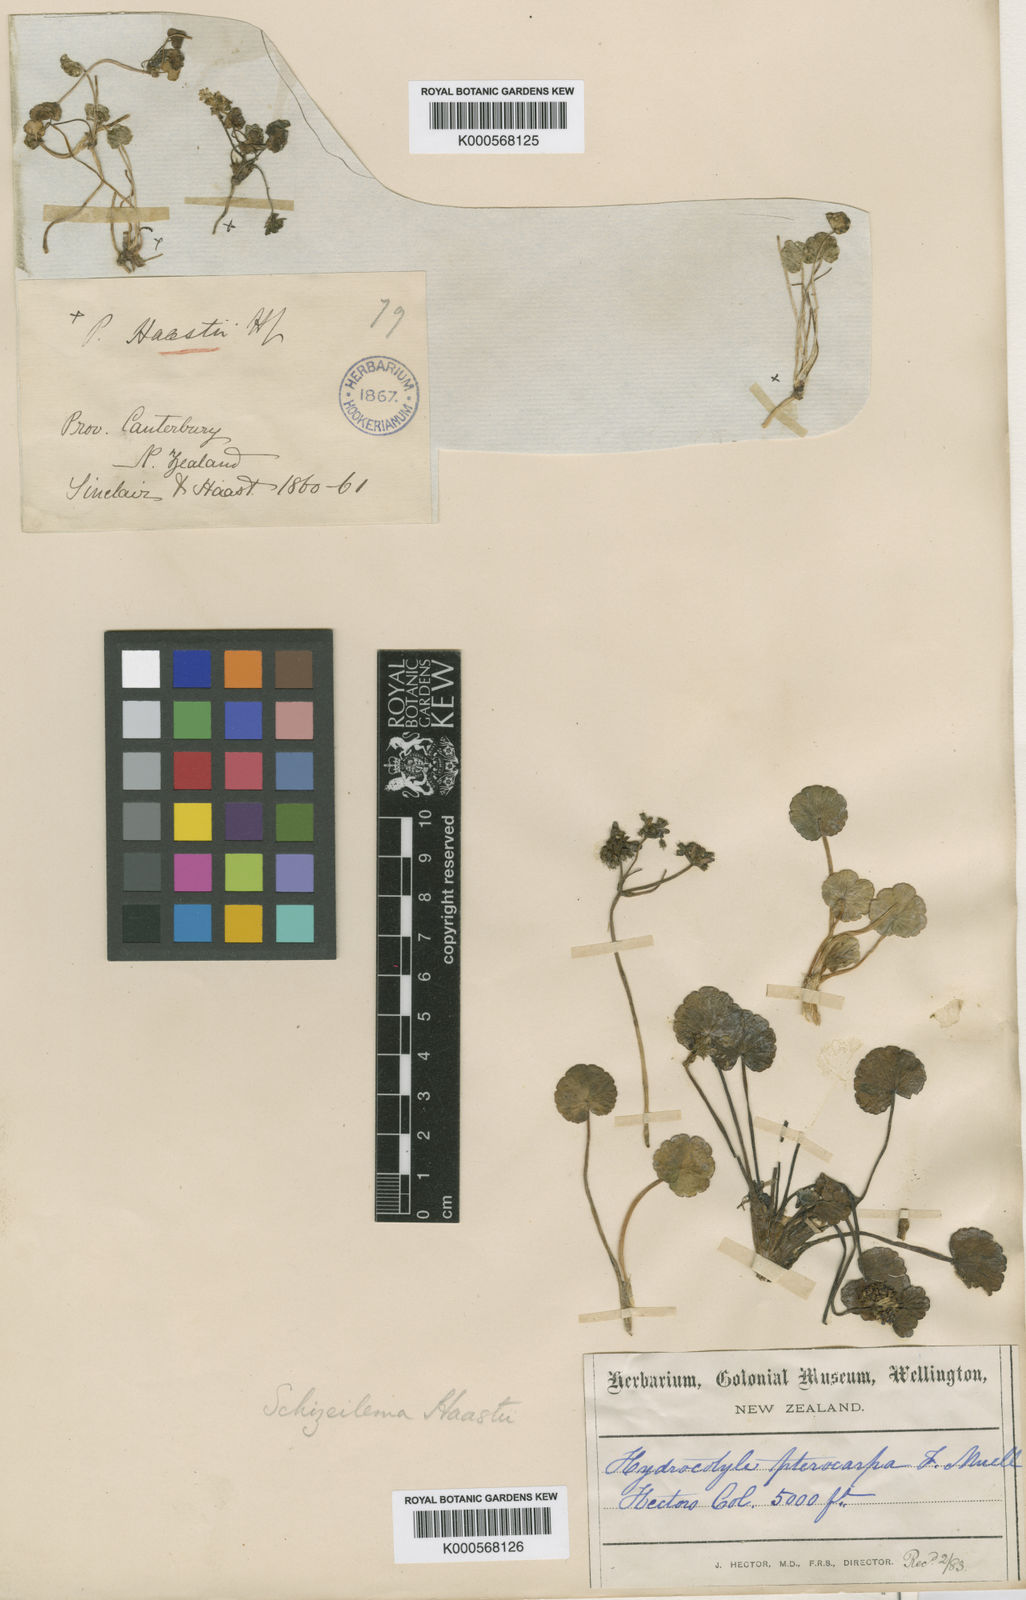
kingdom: Plantae
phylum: Tracheophyta
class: Magnoliopsida
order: Apiales
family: Apiaceae
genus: Azorella
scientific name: Azorella haastii
